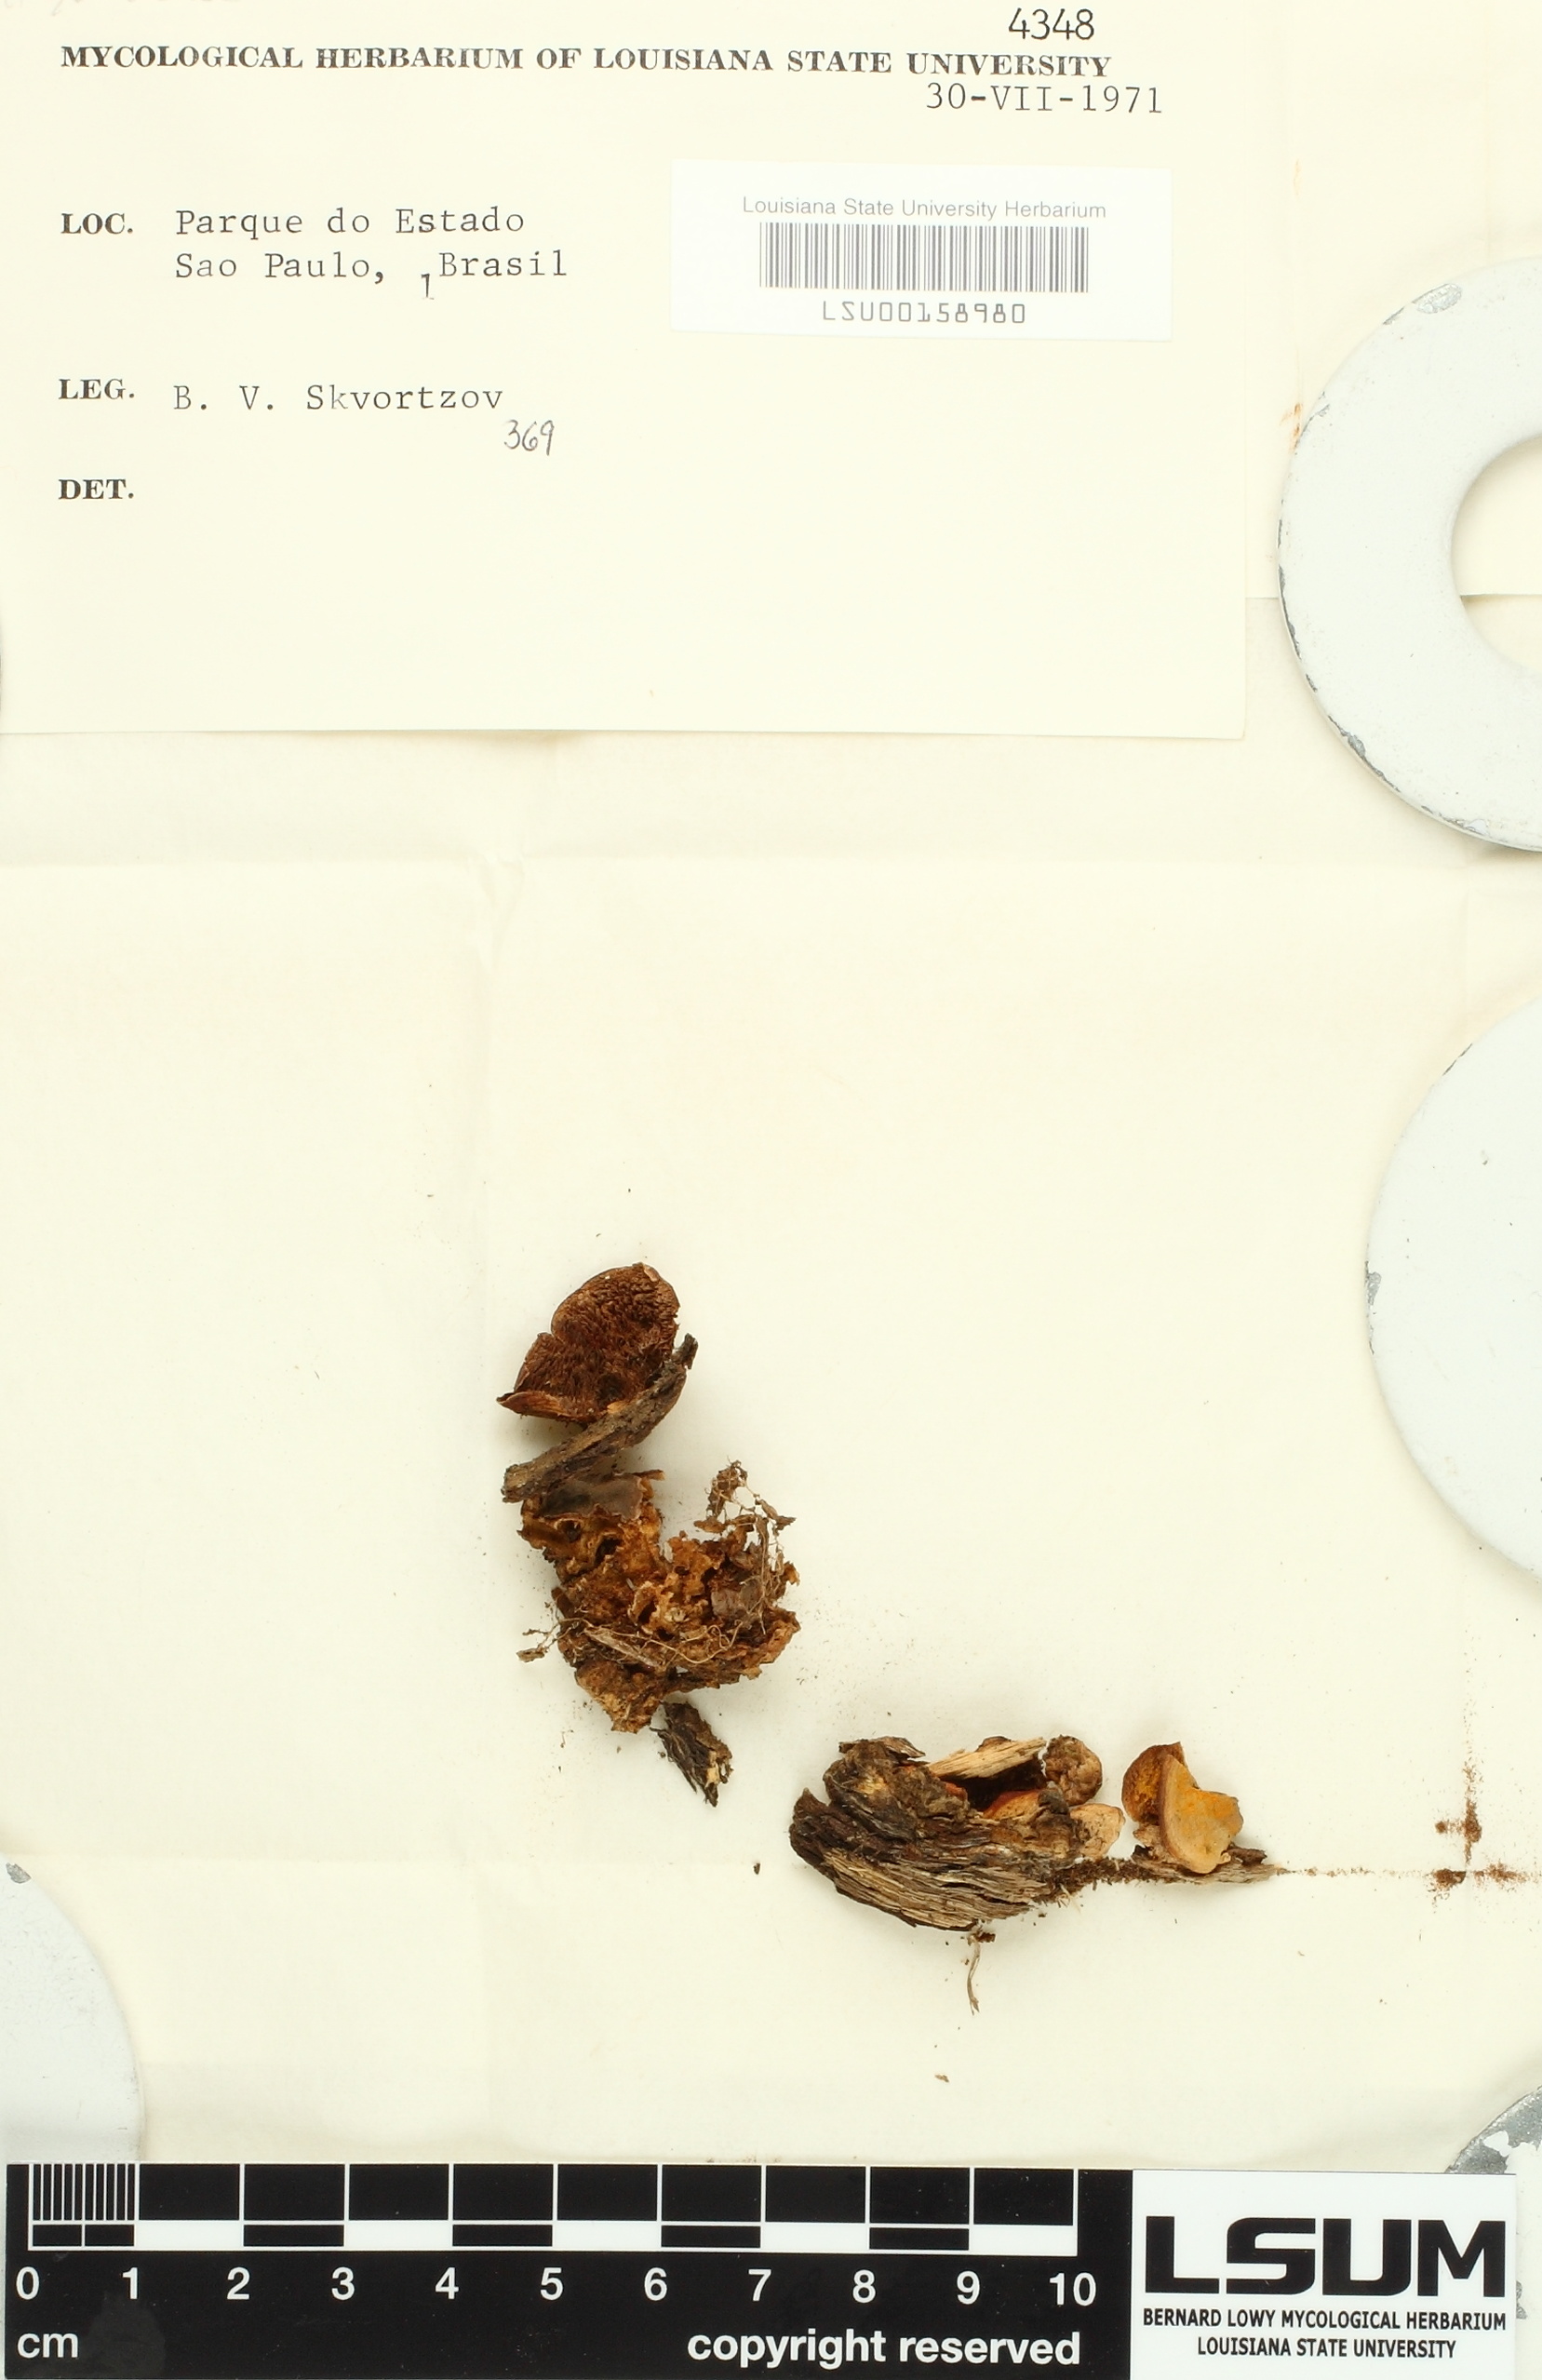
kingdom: Fungi
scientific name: Fungi
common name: Fungi
